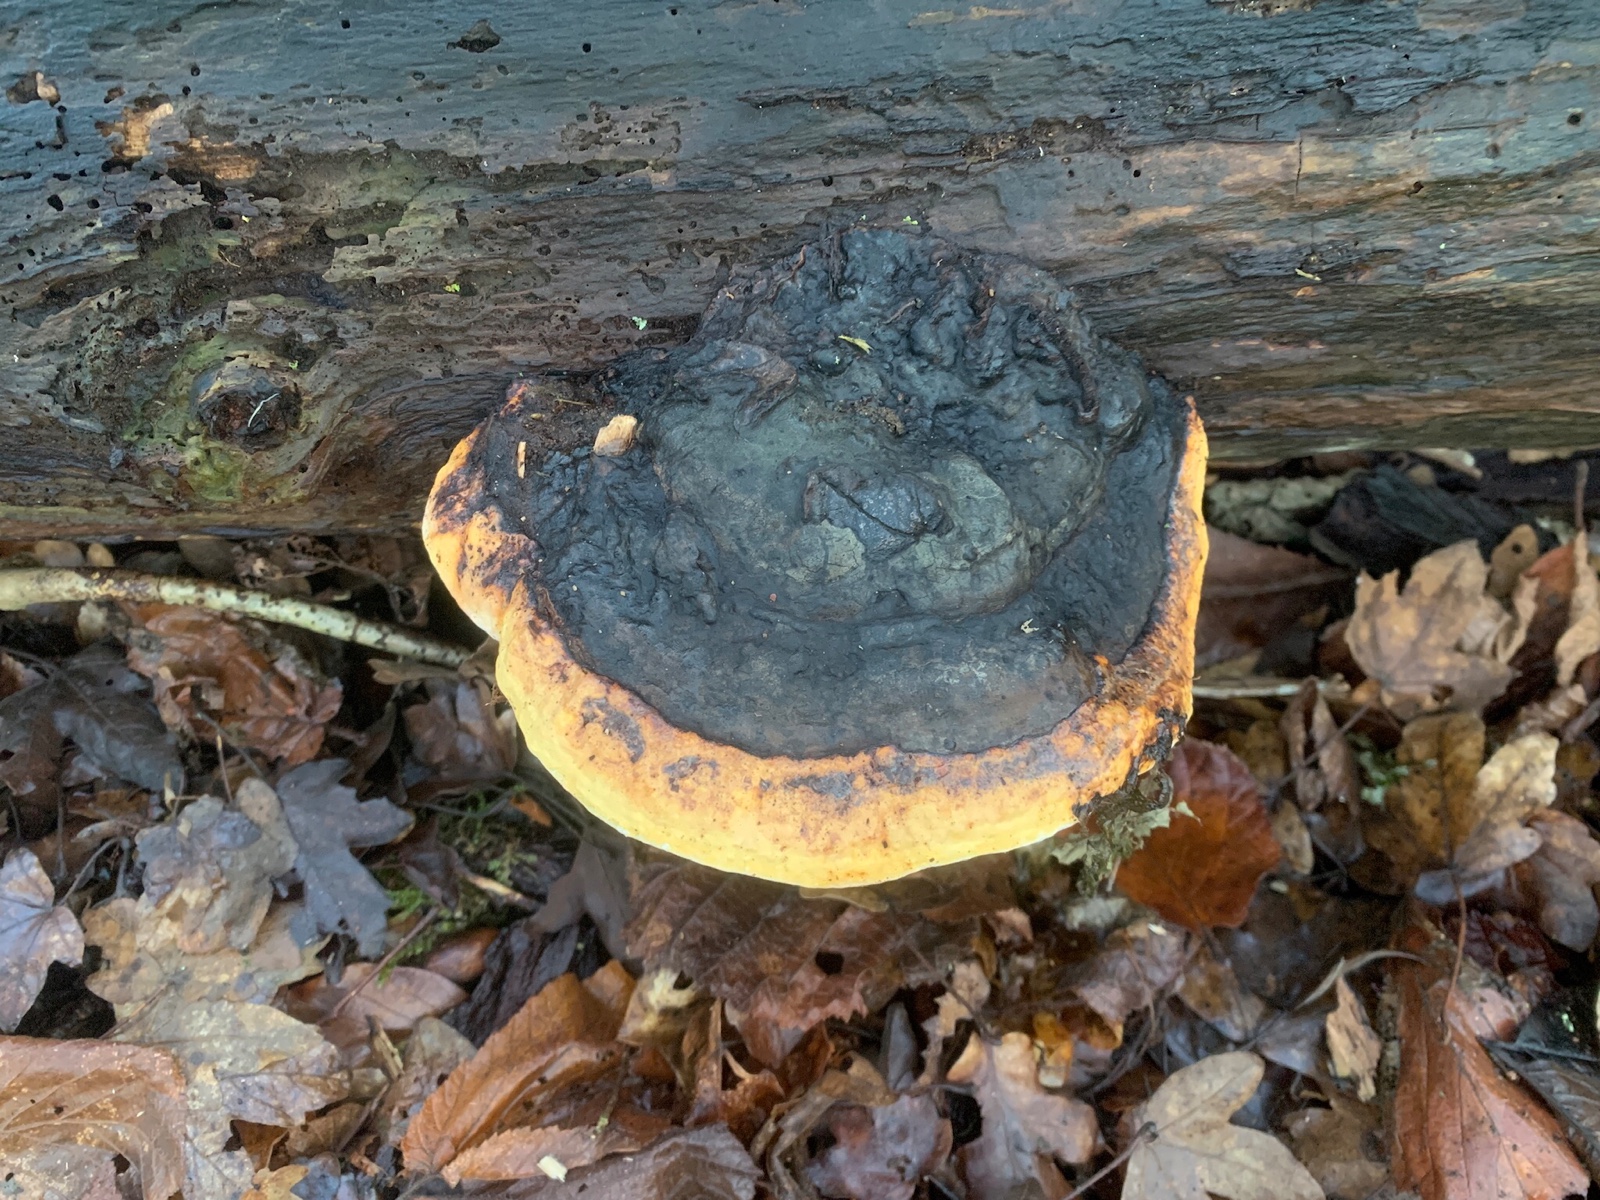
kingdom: Fungi
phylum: Basidiomycota
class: Agaricomycetes
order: Polyporales
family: Fomitopsidaceae
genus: Fomitopsis
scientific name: Fomitopsis pinicola
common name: randbæltet hovporesvamp
